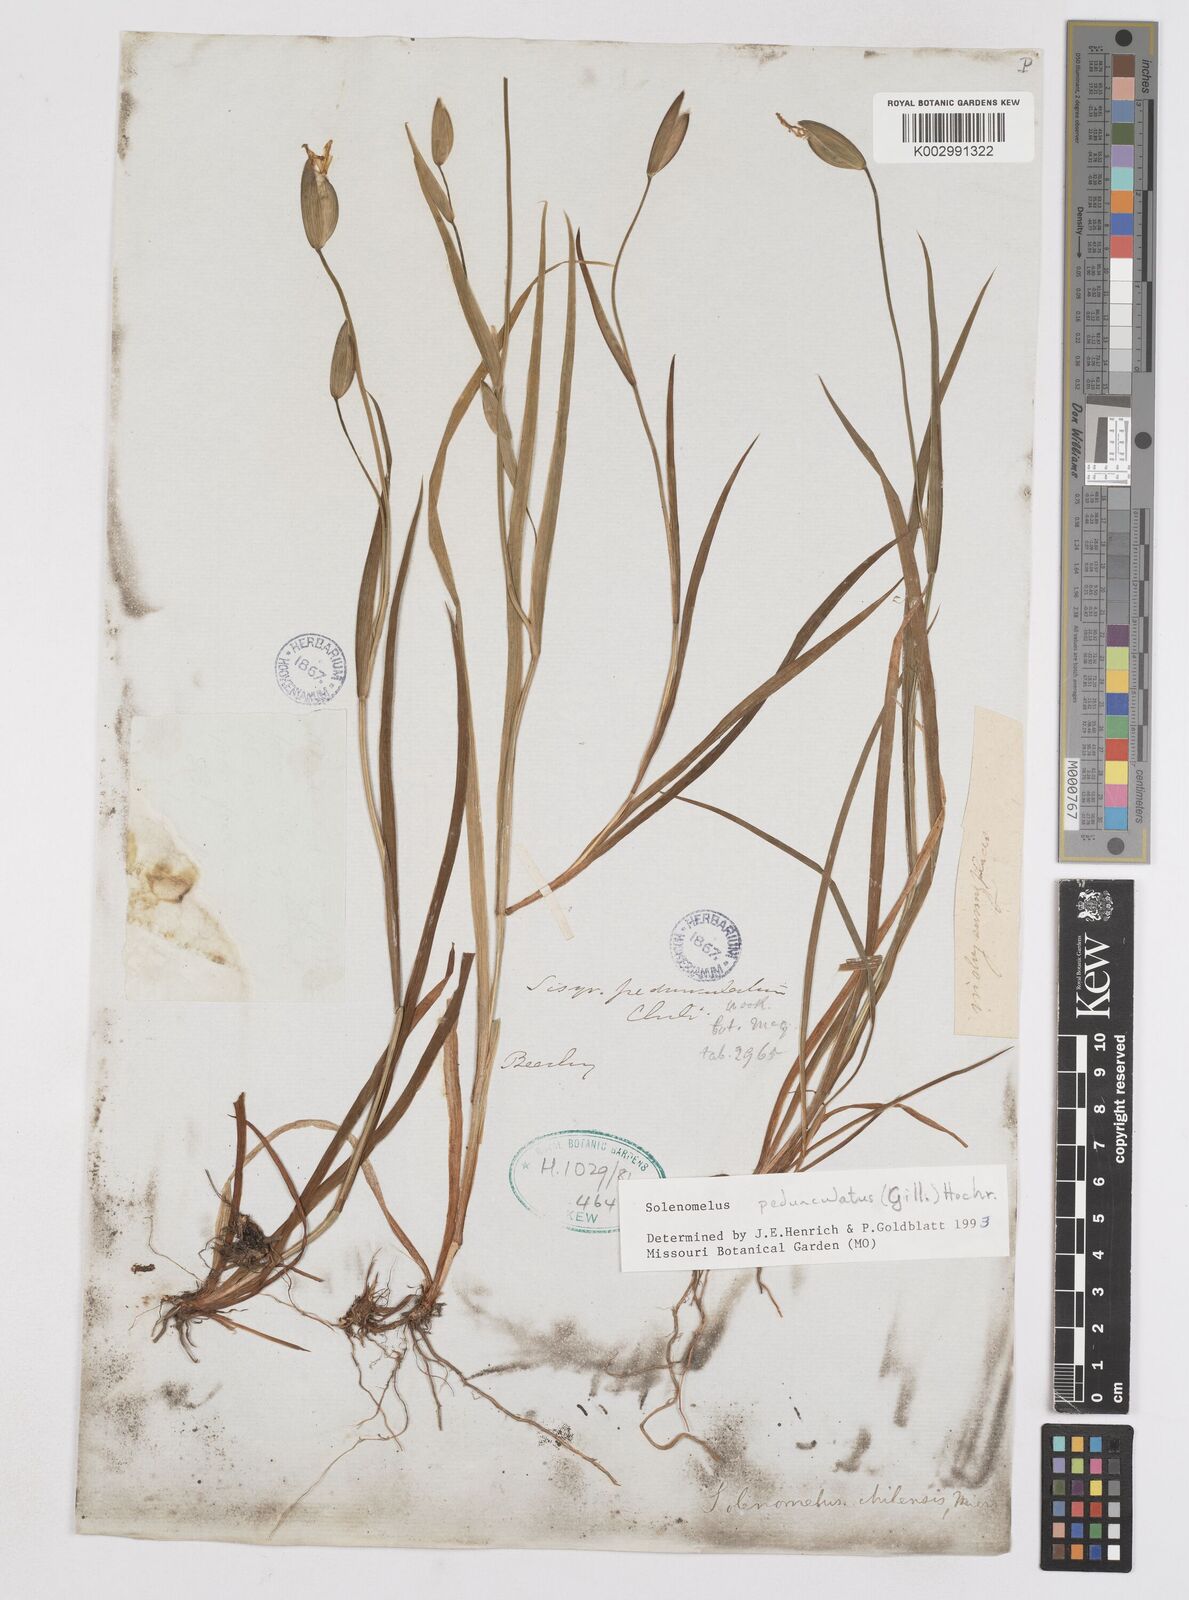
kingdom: Plantae
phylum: Tracheophyta
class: Liliopsida
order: Asparagales
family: Iridaceae
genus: Solenomelus
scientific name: Solenomelus pedunculatus
